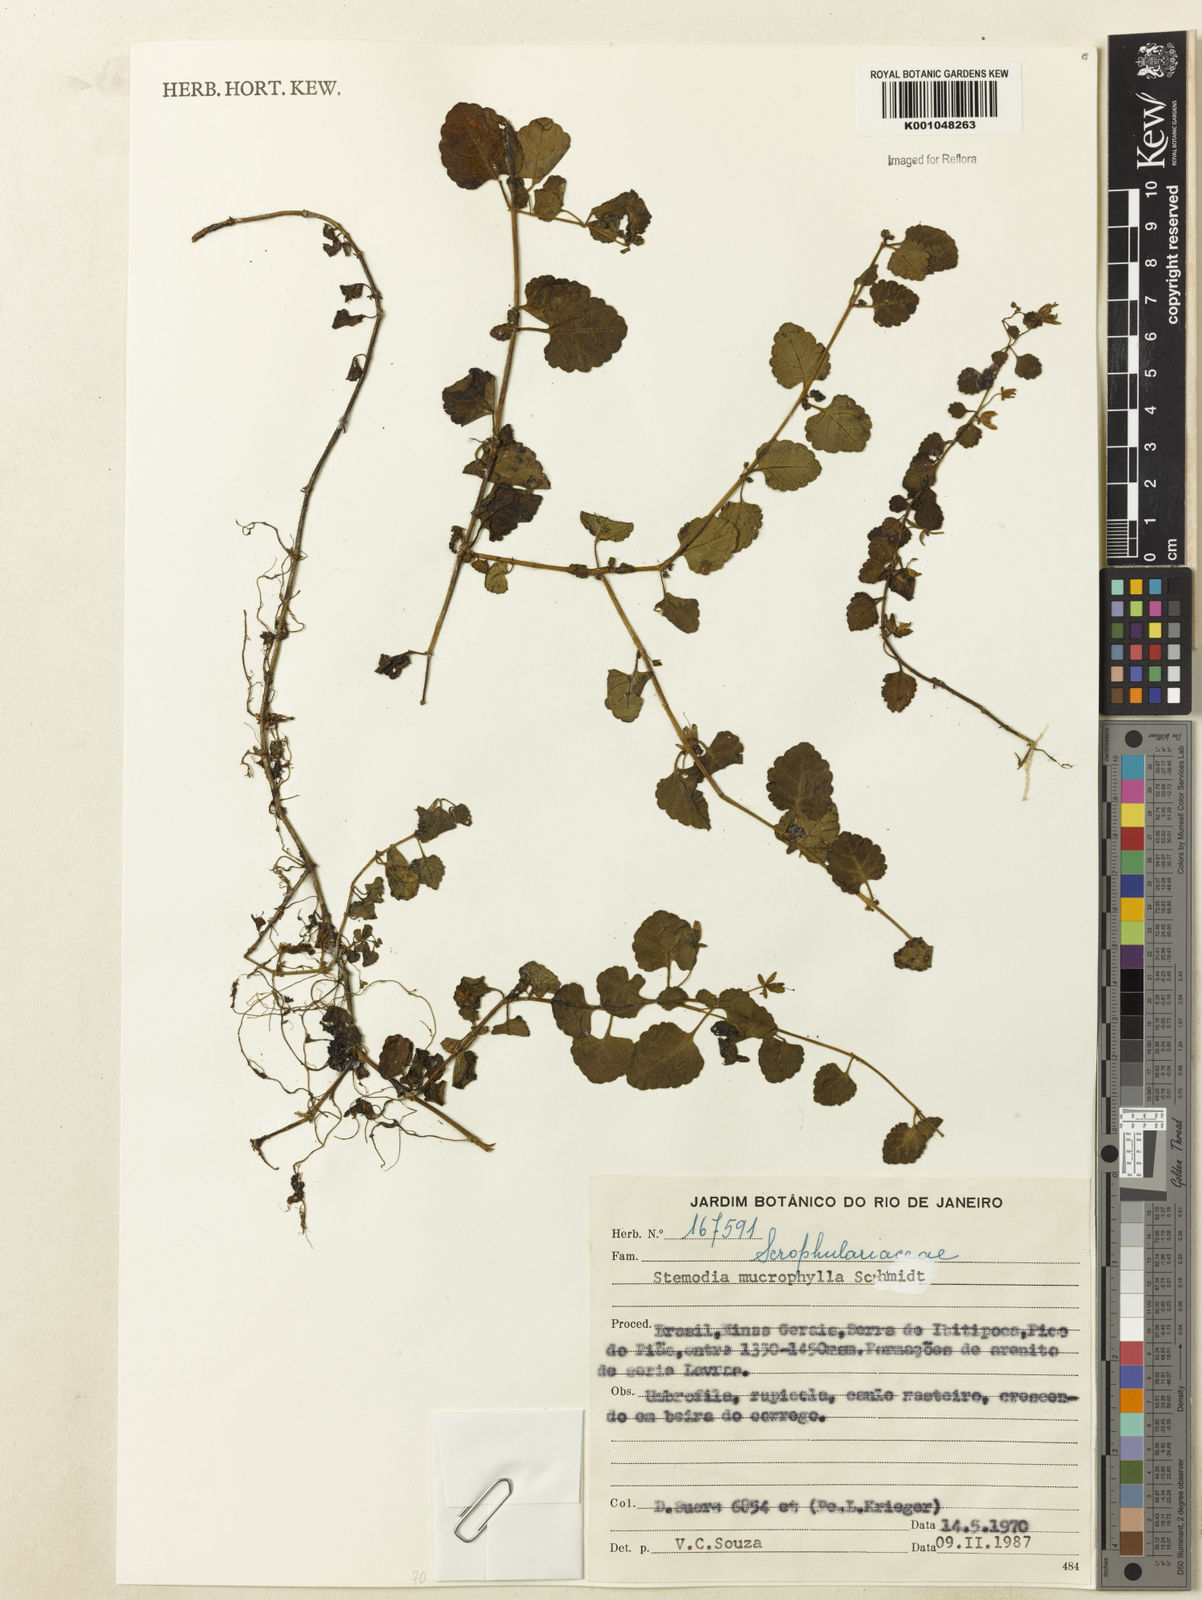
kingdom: Plantae
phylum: Tracheophyta
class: Magnoliopsida
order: Lamiales
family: Plantaginaceae
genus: Umbraria
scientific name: Umbraria microphylla
